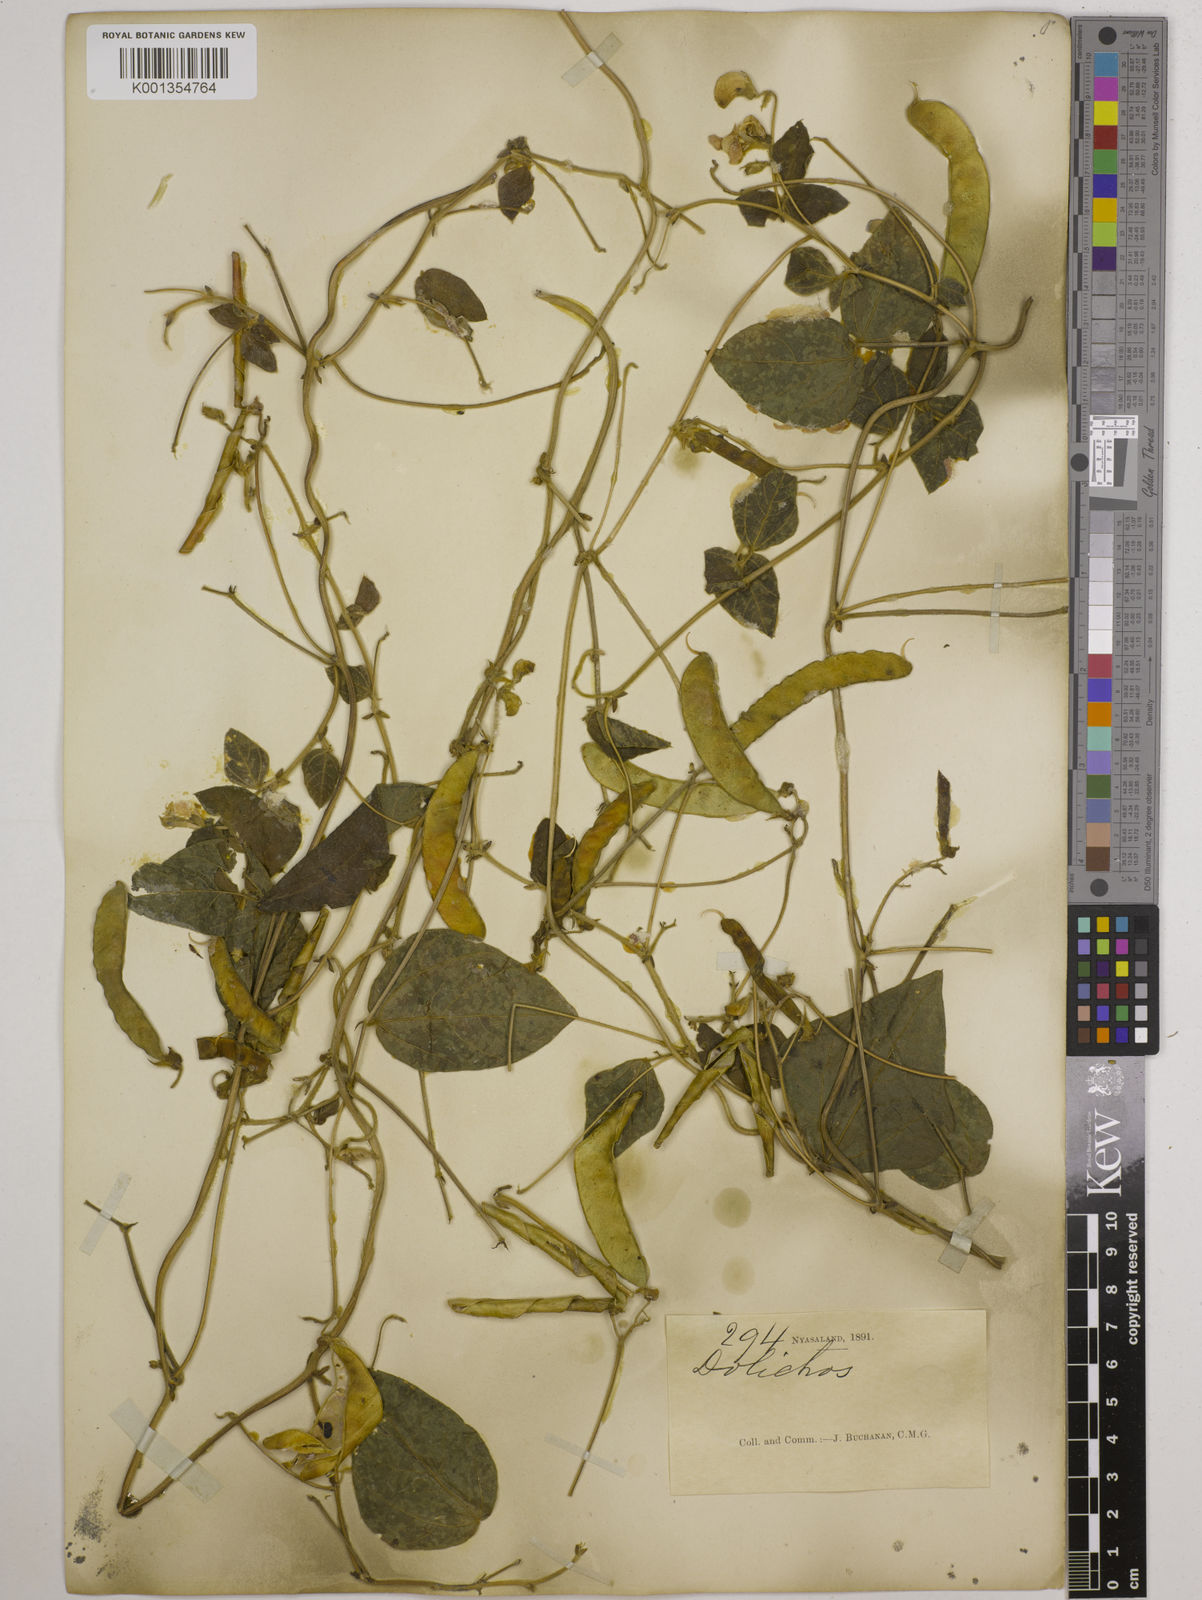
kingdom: Plantae
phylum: Tracheophyta
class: Magnoliopsida
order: Fabales
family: Fabaceae
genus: Dolichos
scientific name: Dolichos
